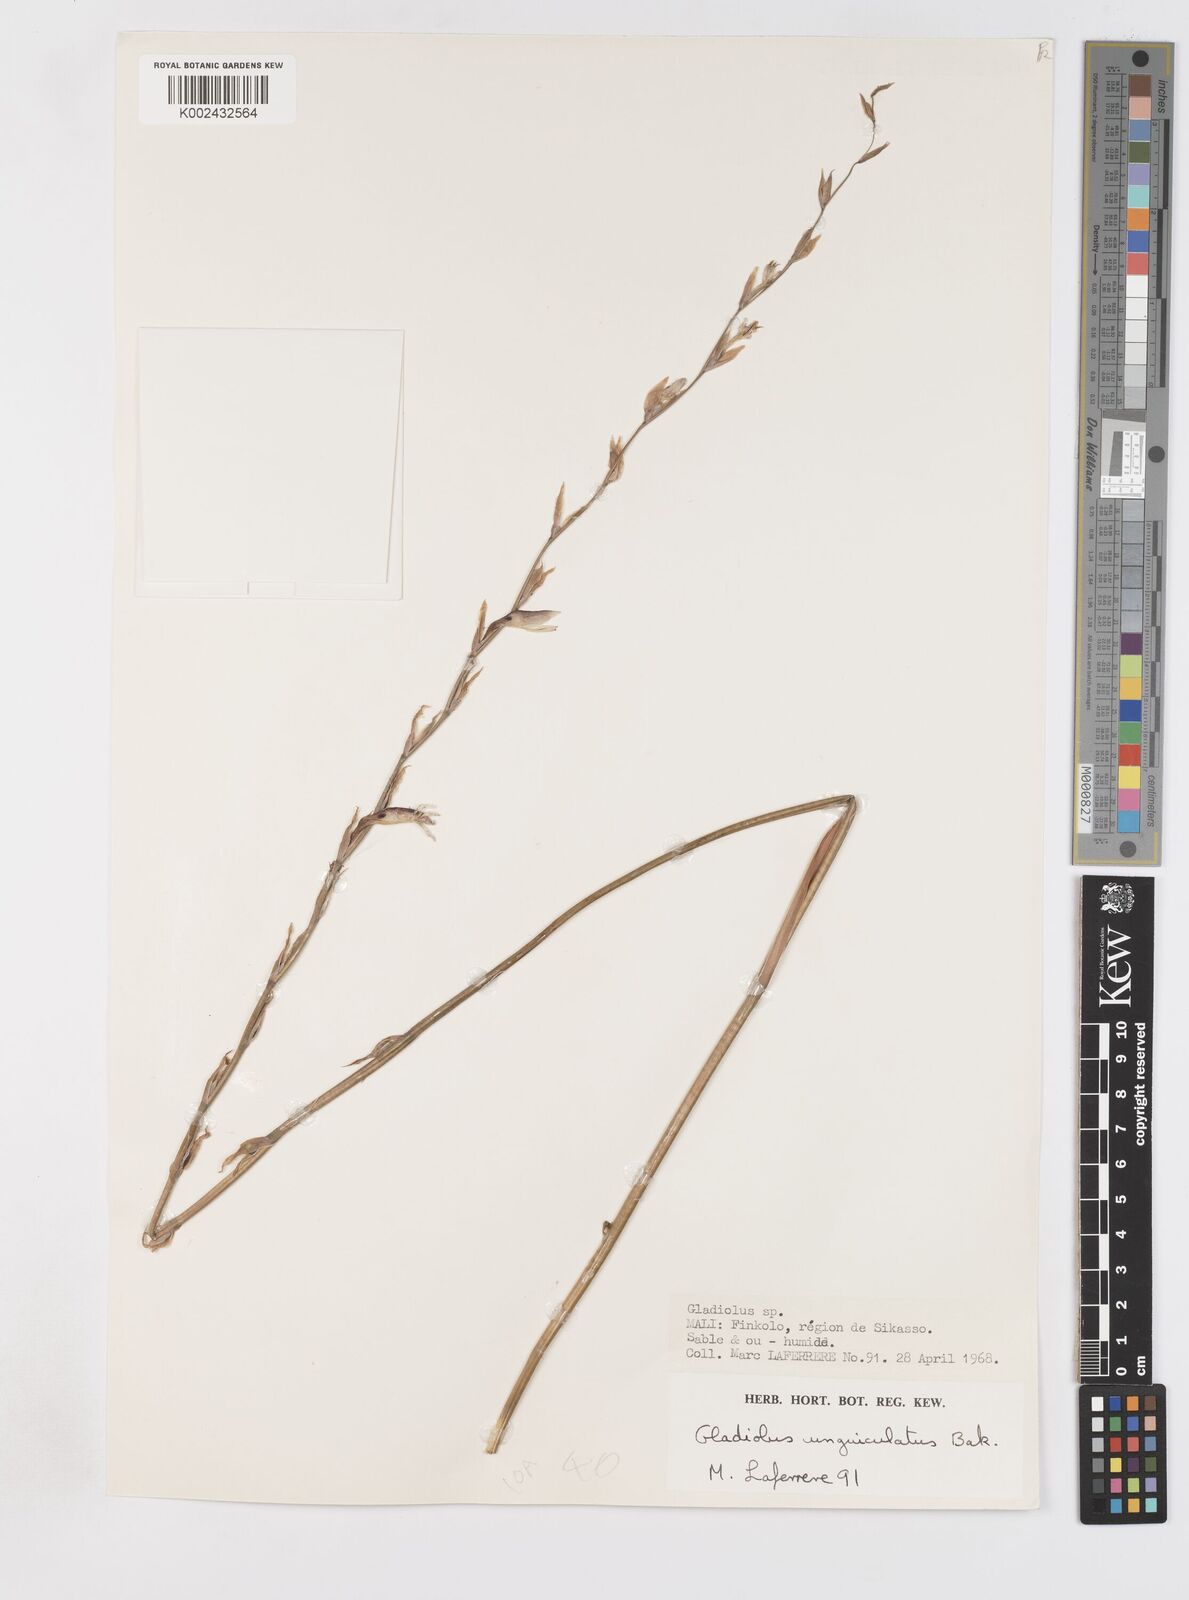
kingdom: Plantae
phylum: Tracheophyta
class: Liliopsida
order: Asparagales
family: Iridaceae
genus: Tritoniopsis
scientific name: Tritoniopsis ramosa
